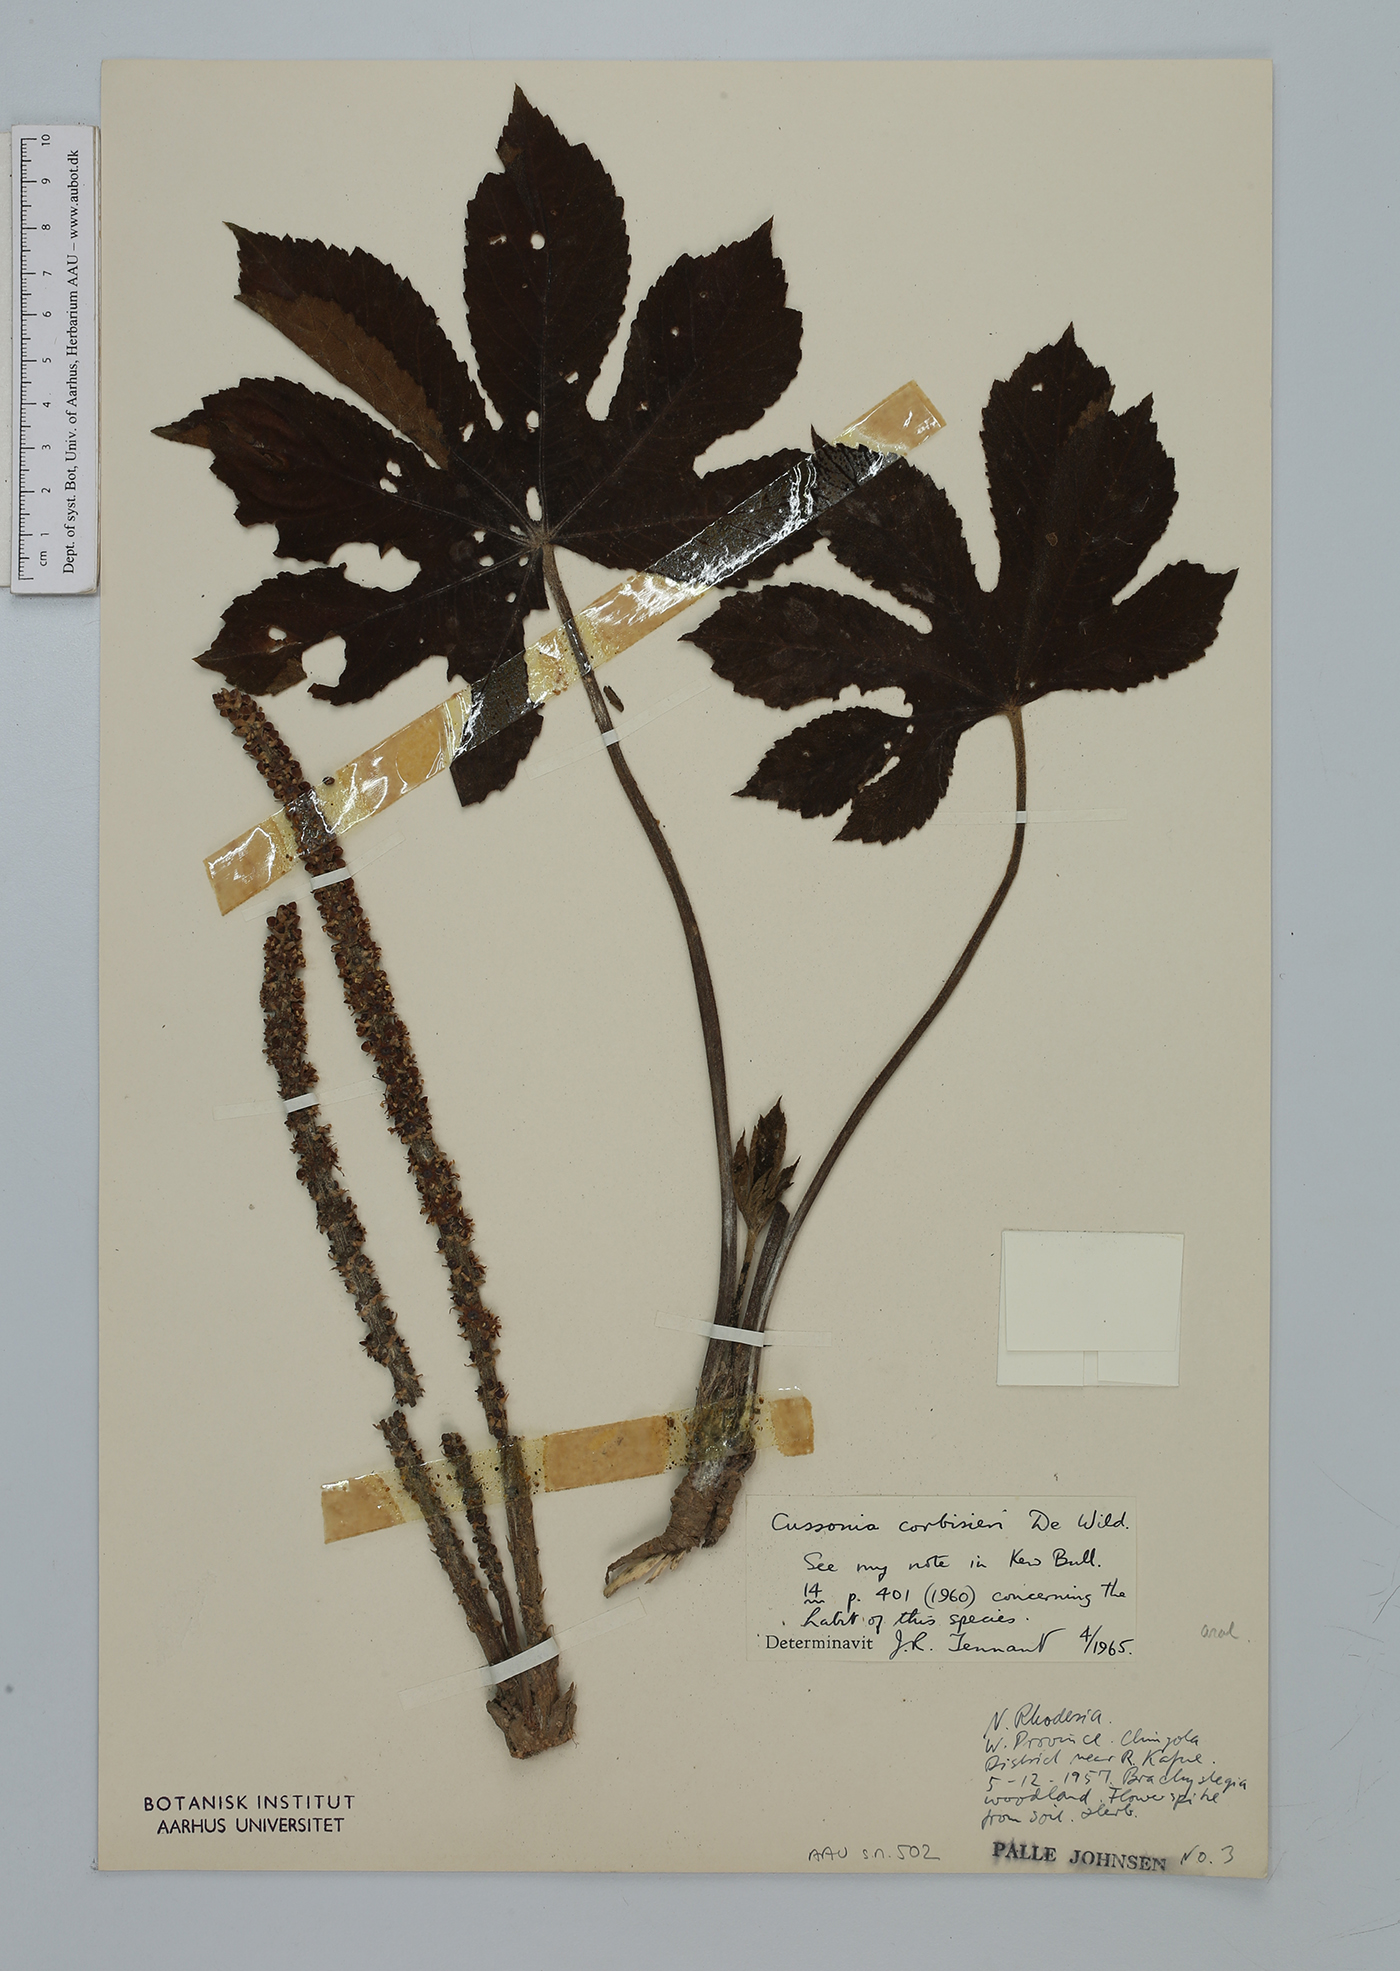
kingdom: Plantae
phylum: Tracheophyta
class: Magnoliopsida
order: Apiales
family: Araliaceae
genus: Cussonia
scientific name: Cussonia corbisieri
